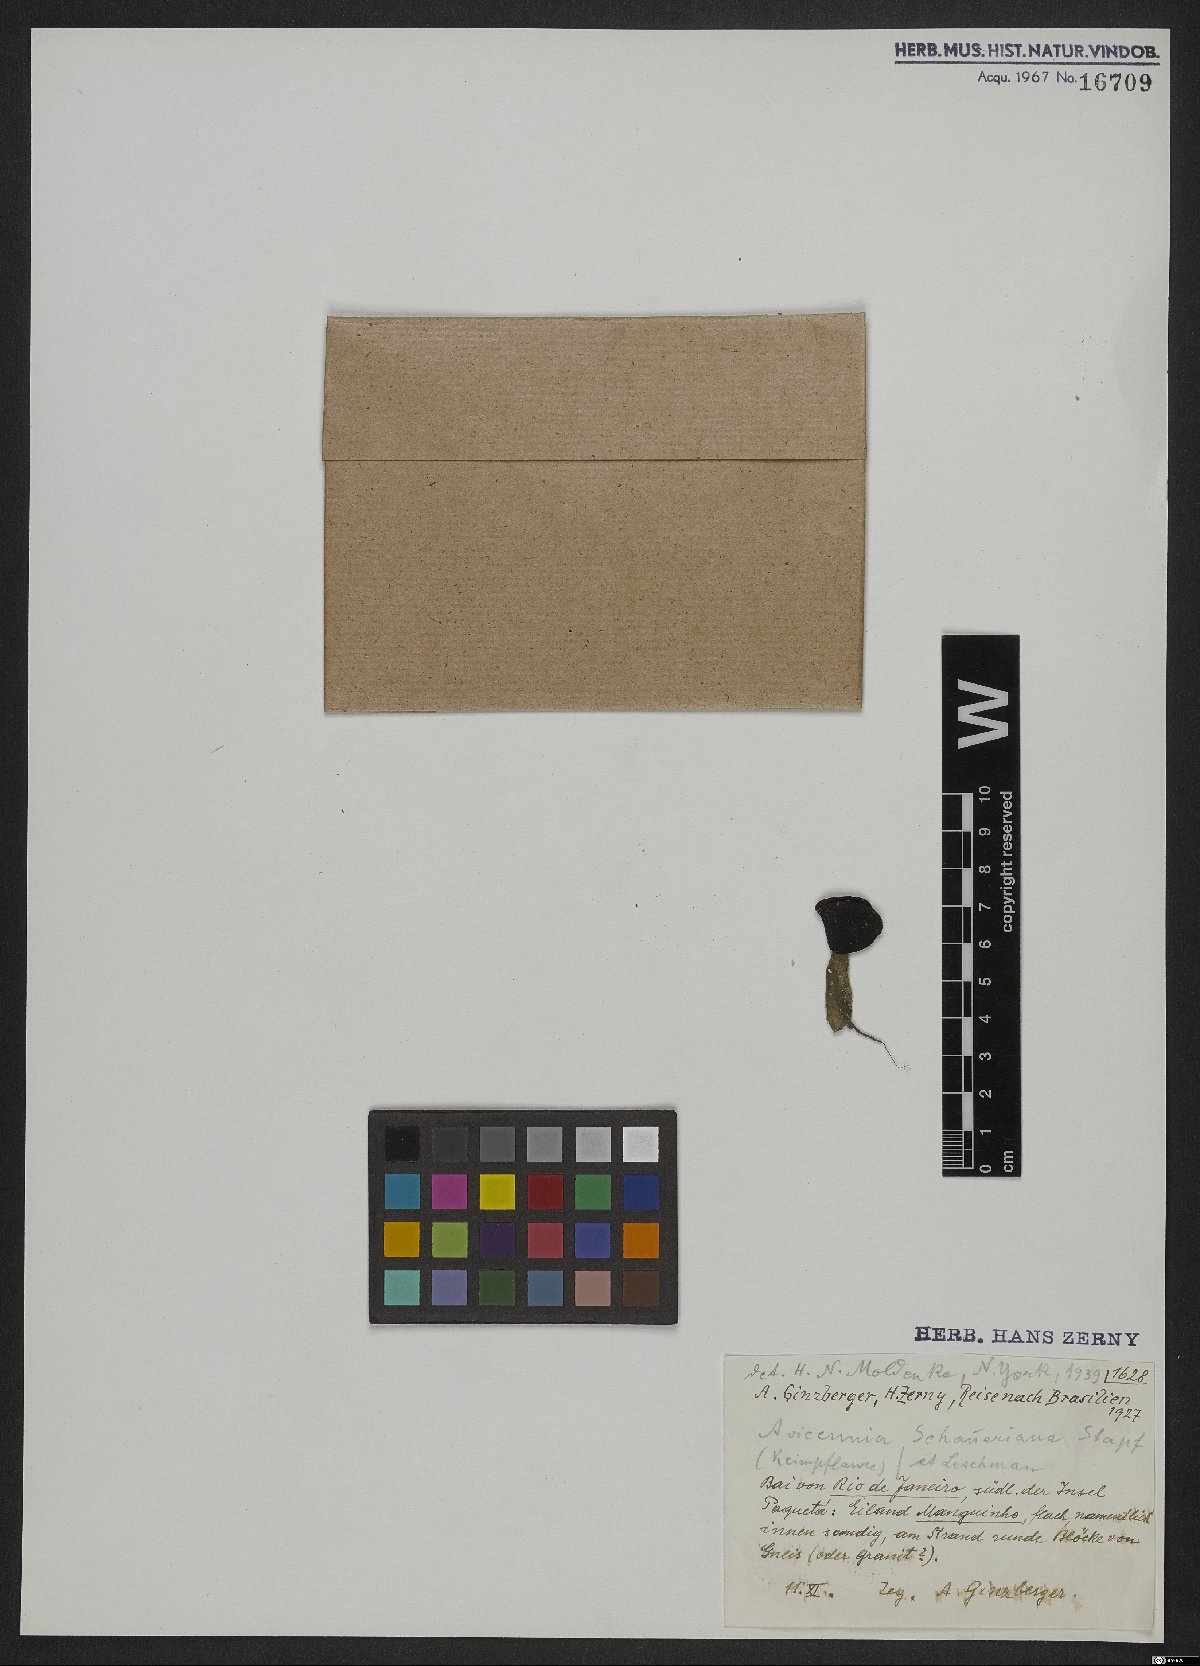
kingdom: Plantae
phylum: Tracheophyta
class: Magnoliopsida
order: Lamiales
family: Acanthaceae
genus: Avicennia
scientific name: Avicennia schaueriana
